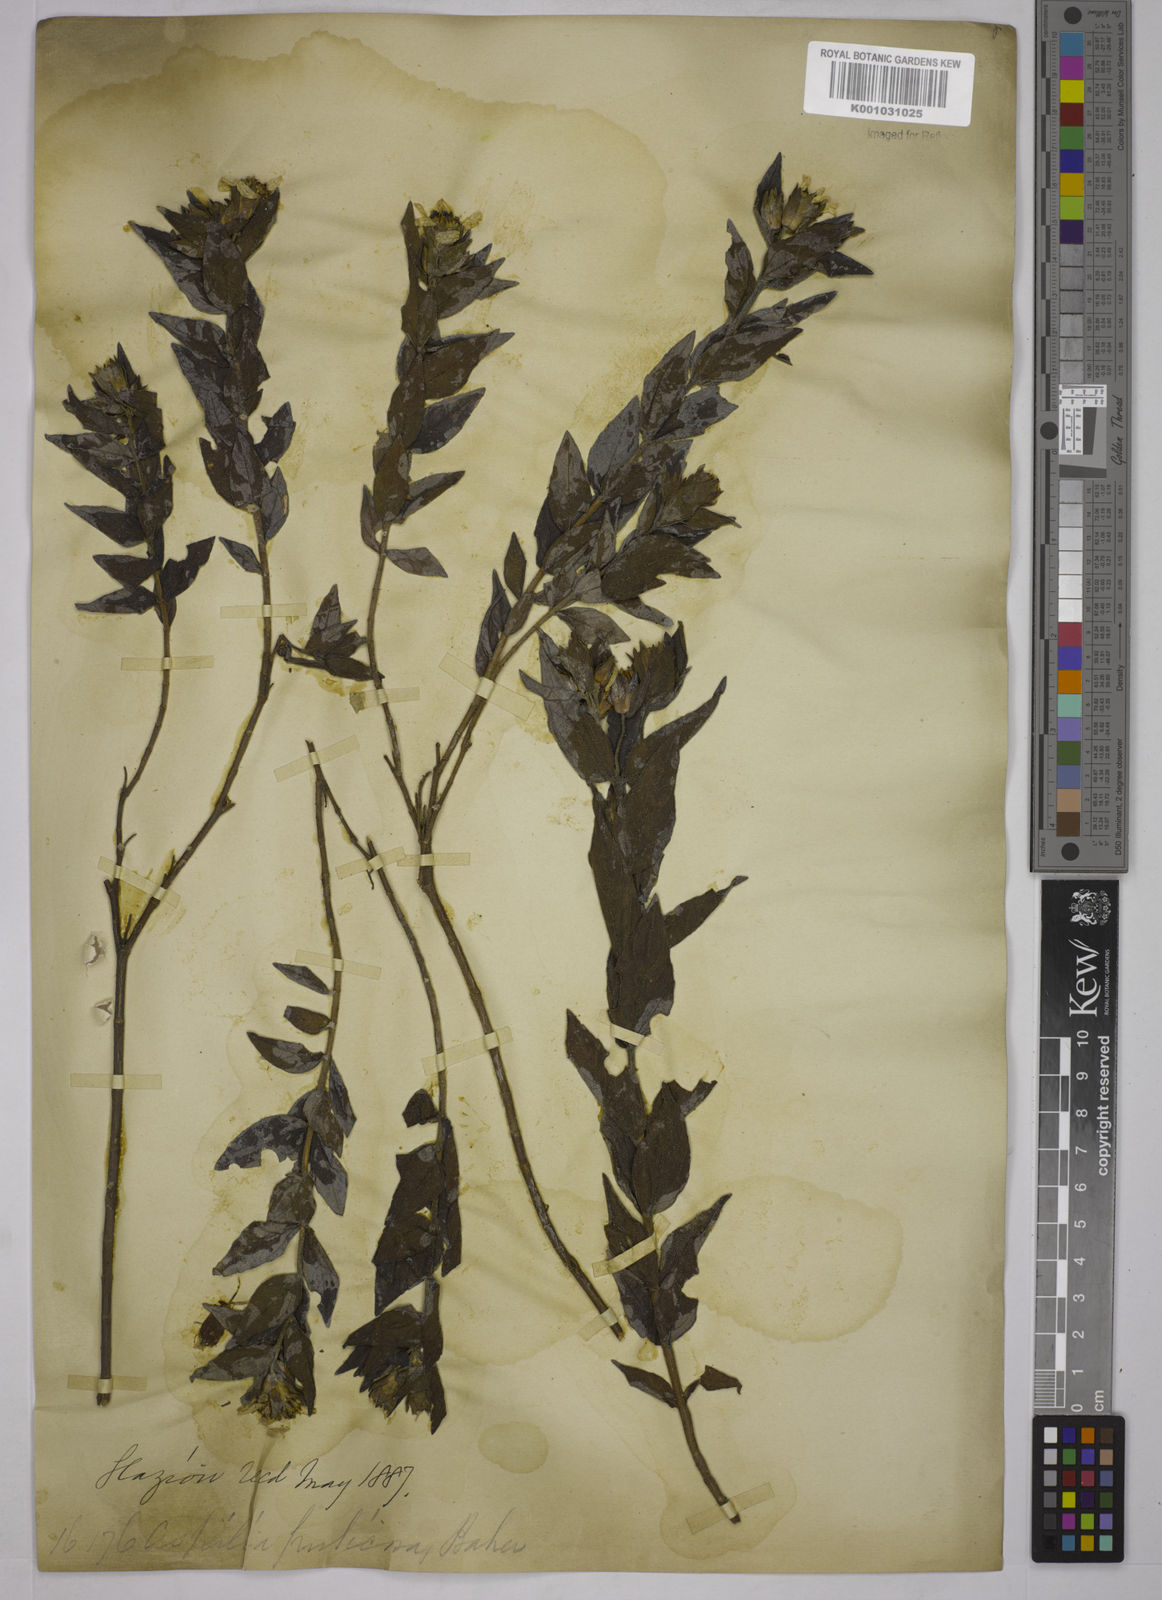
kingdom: Plantae
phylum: Tracheophyta
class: Magnoliopsida
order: Asterales
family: Asteraceae
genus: Wedelia
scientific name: Wedelia frustrata
